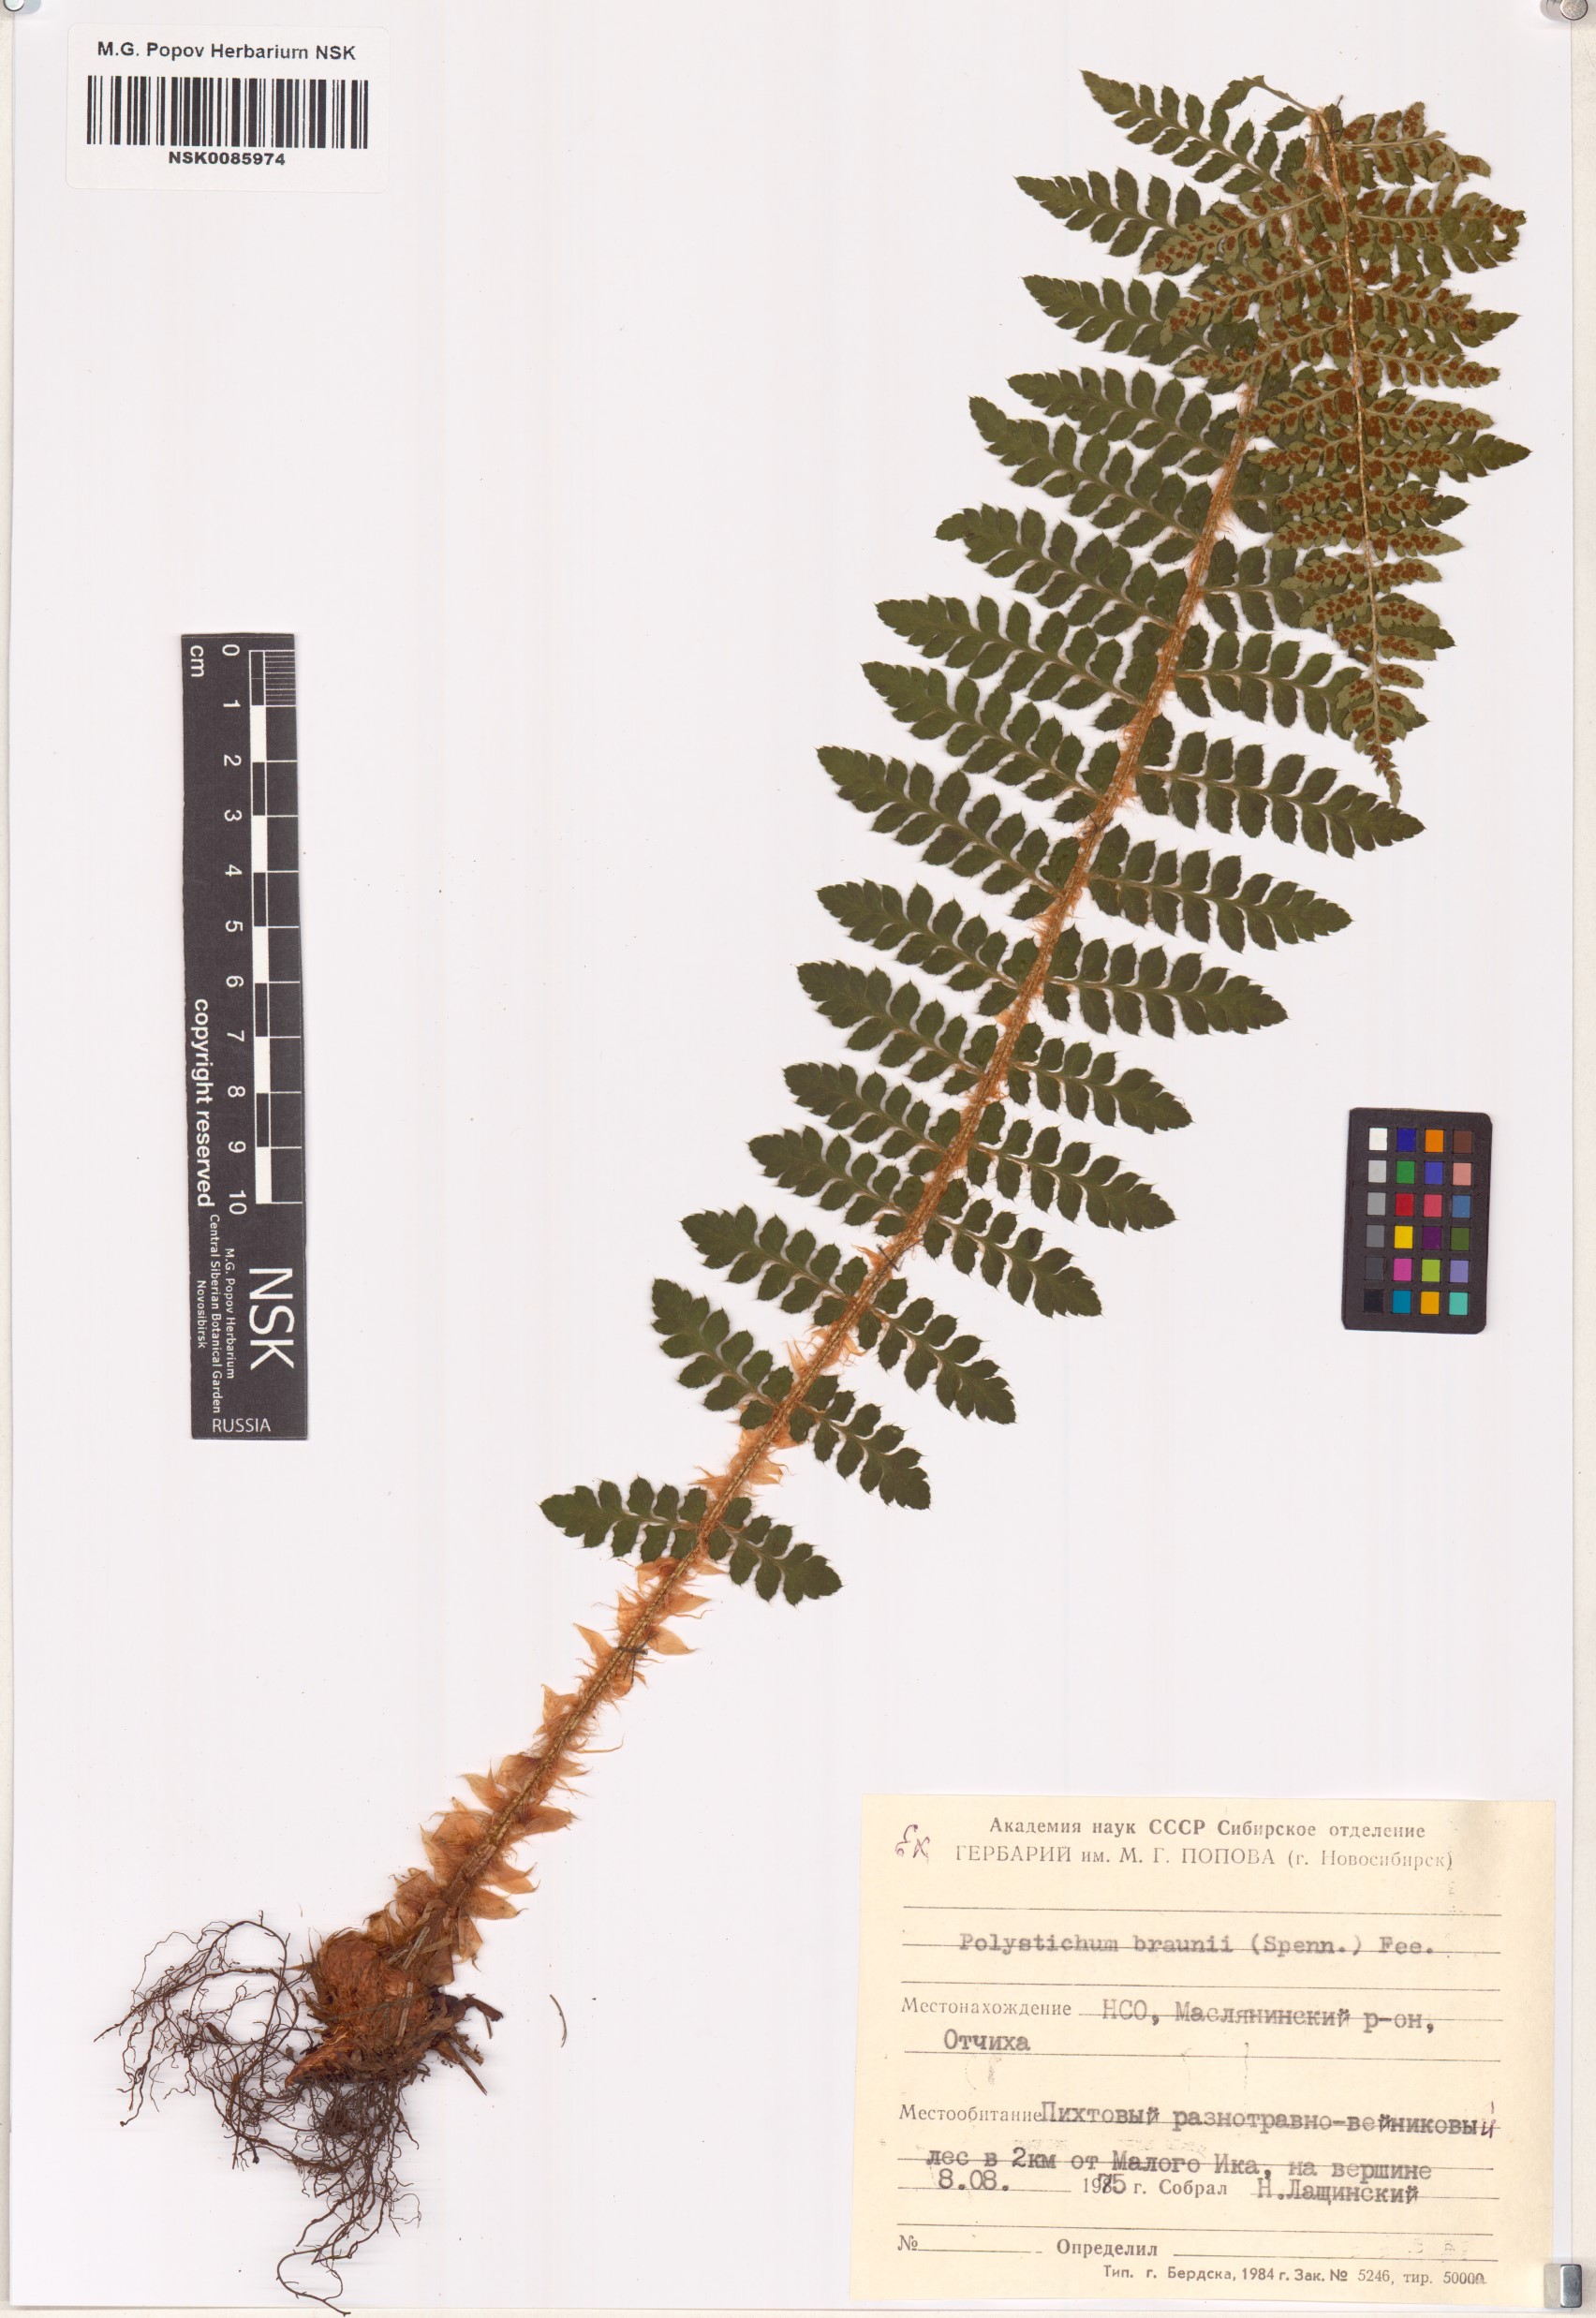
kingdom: Plantae
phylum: Tracheophyta
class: Polypodiopsida
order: Polypodiales
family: Dryopteridaceae
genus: Polystichum
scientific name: Polystichum braunii
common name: Braun's holly fern
